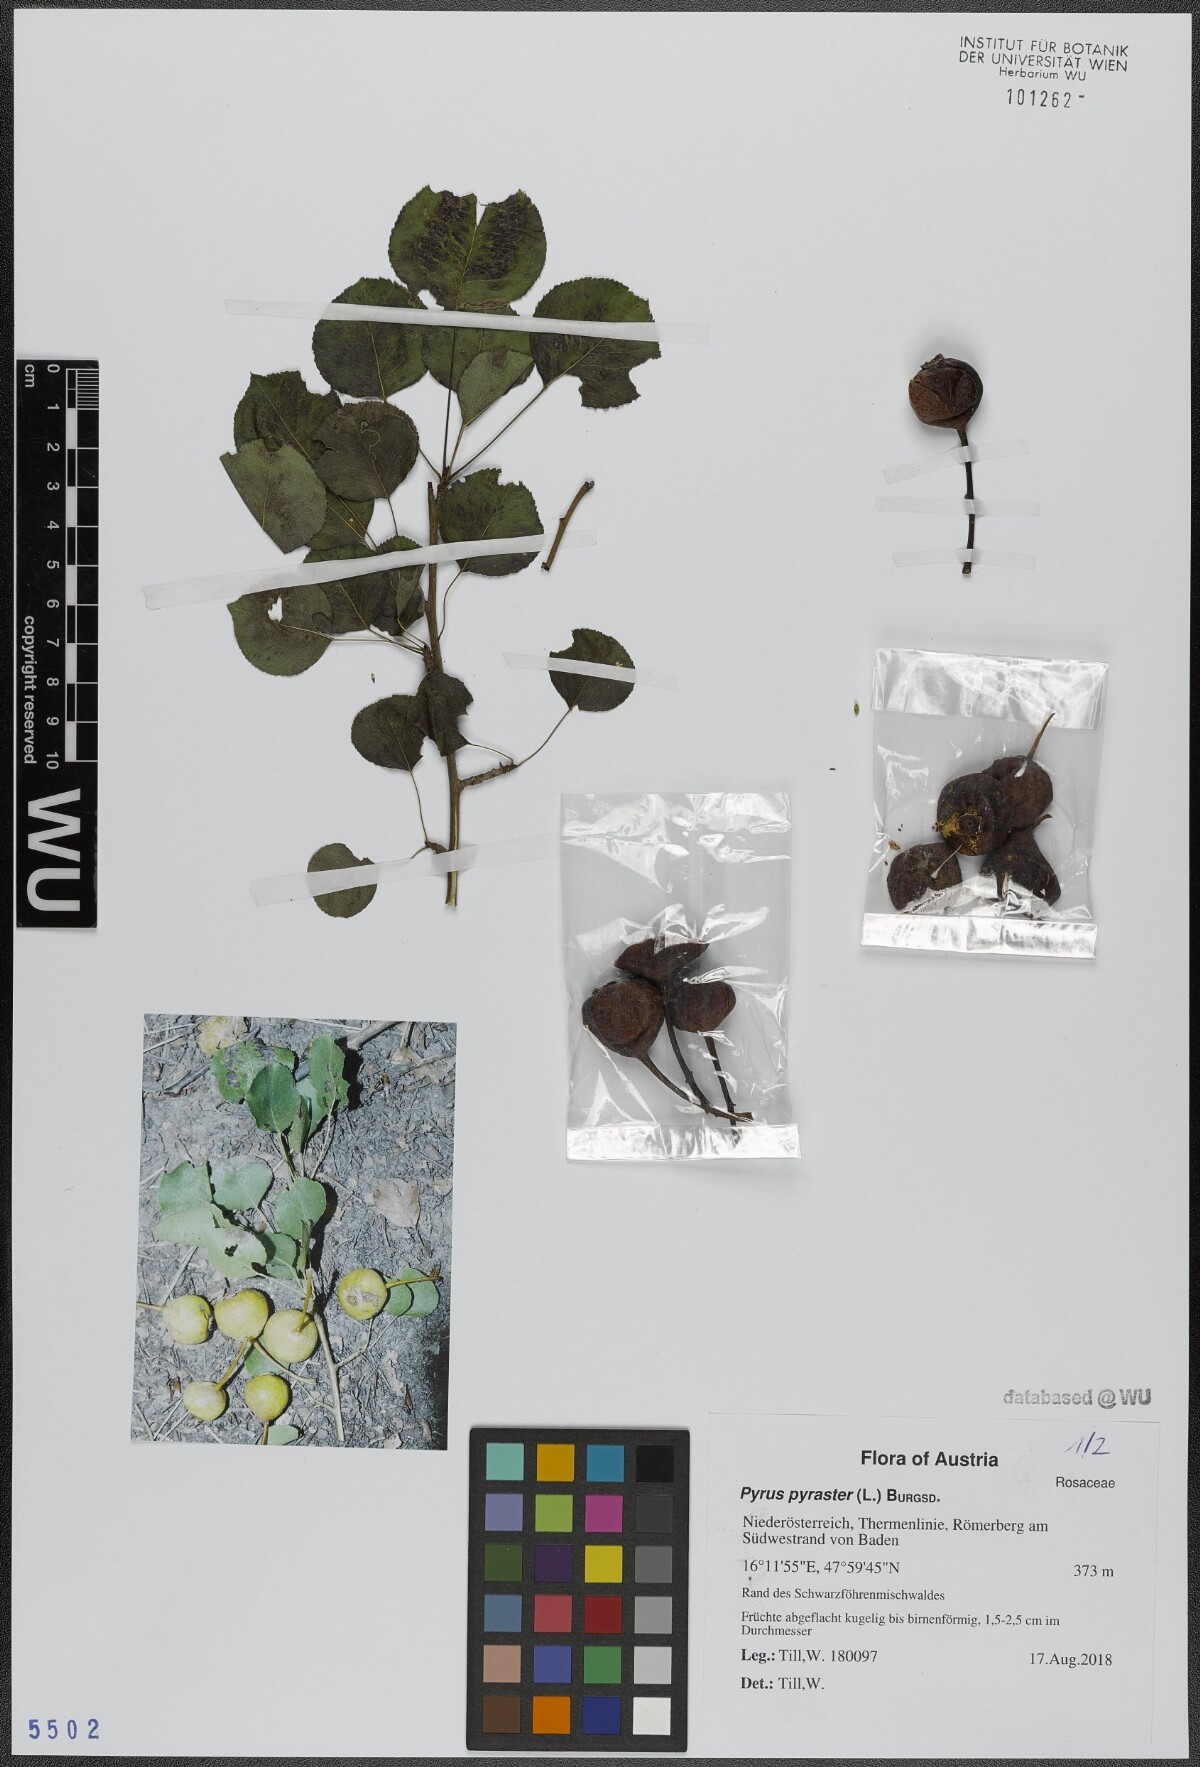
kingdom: Plantae
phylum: Tracheophyta
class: Magnoliopsida
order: Rosales
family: Rosaceae
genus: Pyrus
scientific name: Pyrus pyraster
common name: Wild pear
